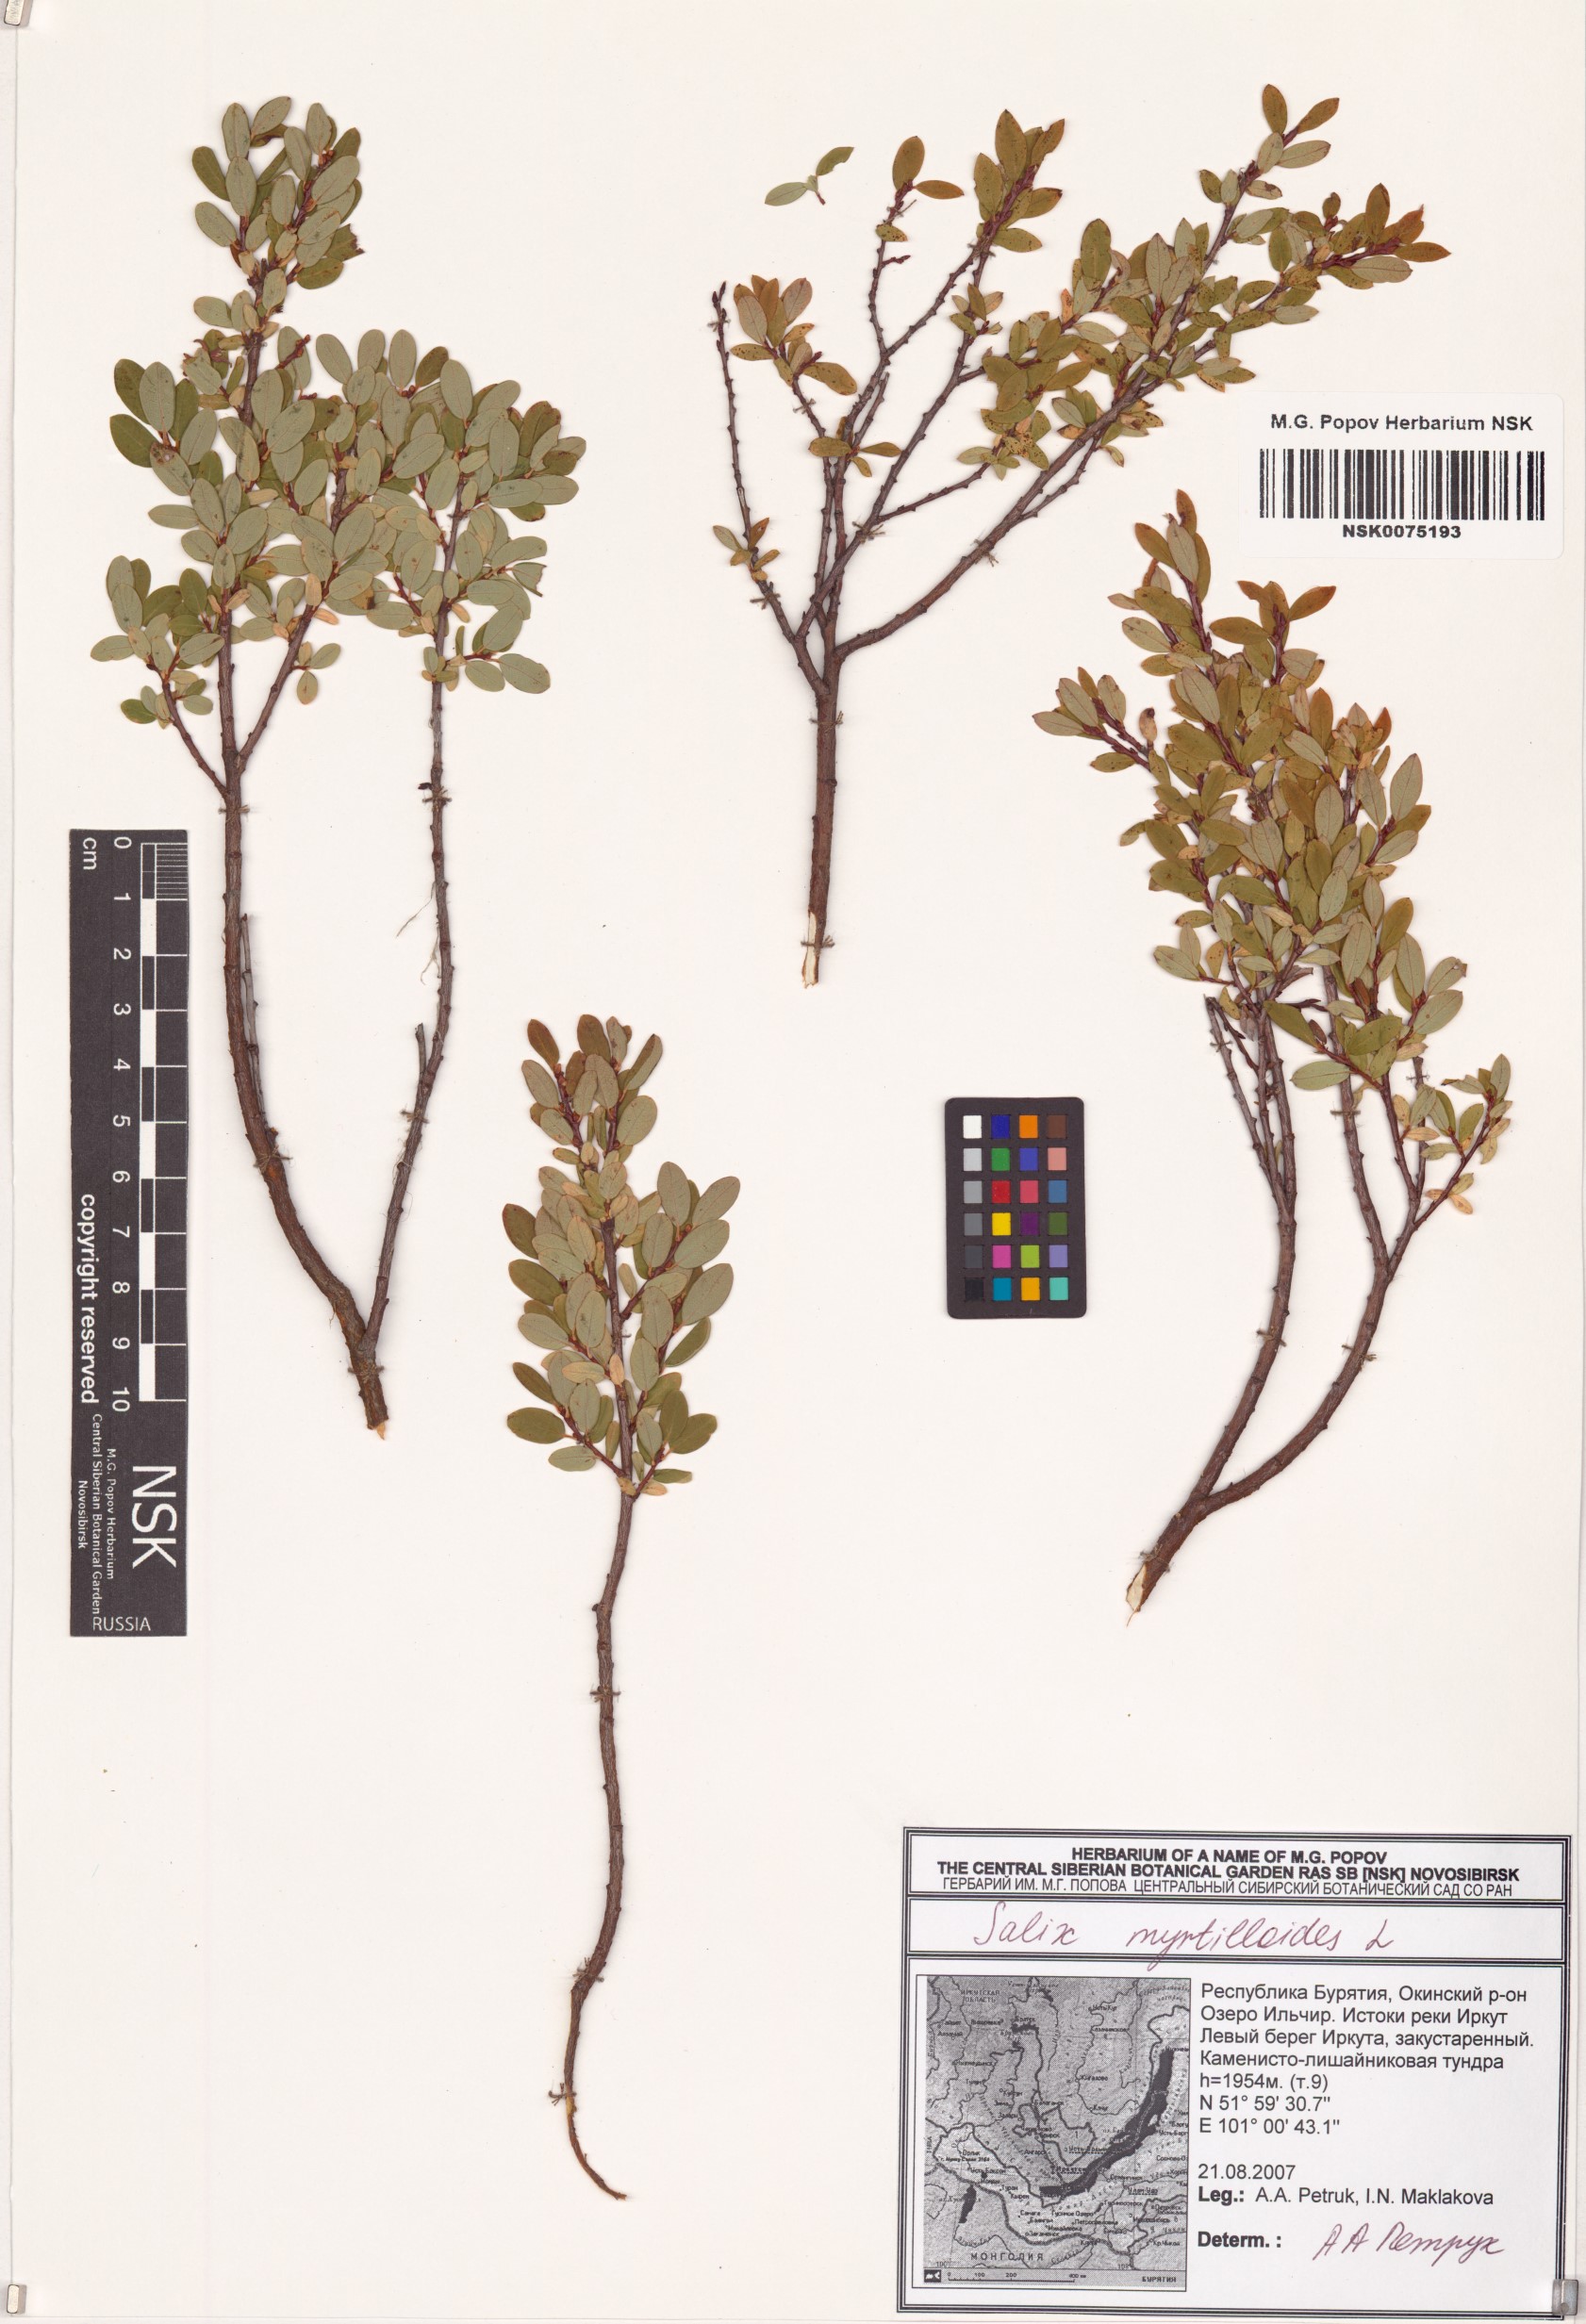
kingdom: Plantae
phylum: Tracheophyta
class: Magnoliopsida
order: Malpighiales
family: Salicaceae
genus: Salix
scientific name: Salix myrtilloides
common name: Myrtle-leaved willow
